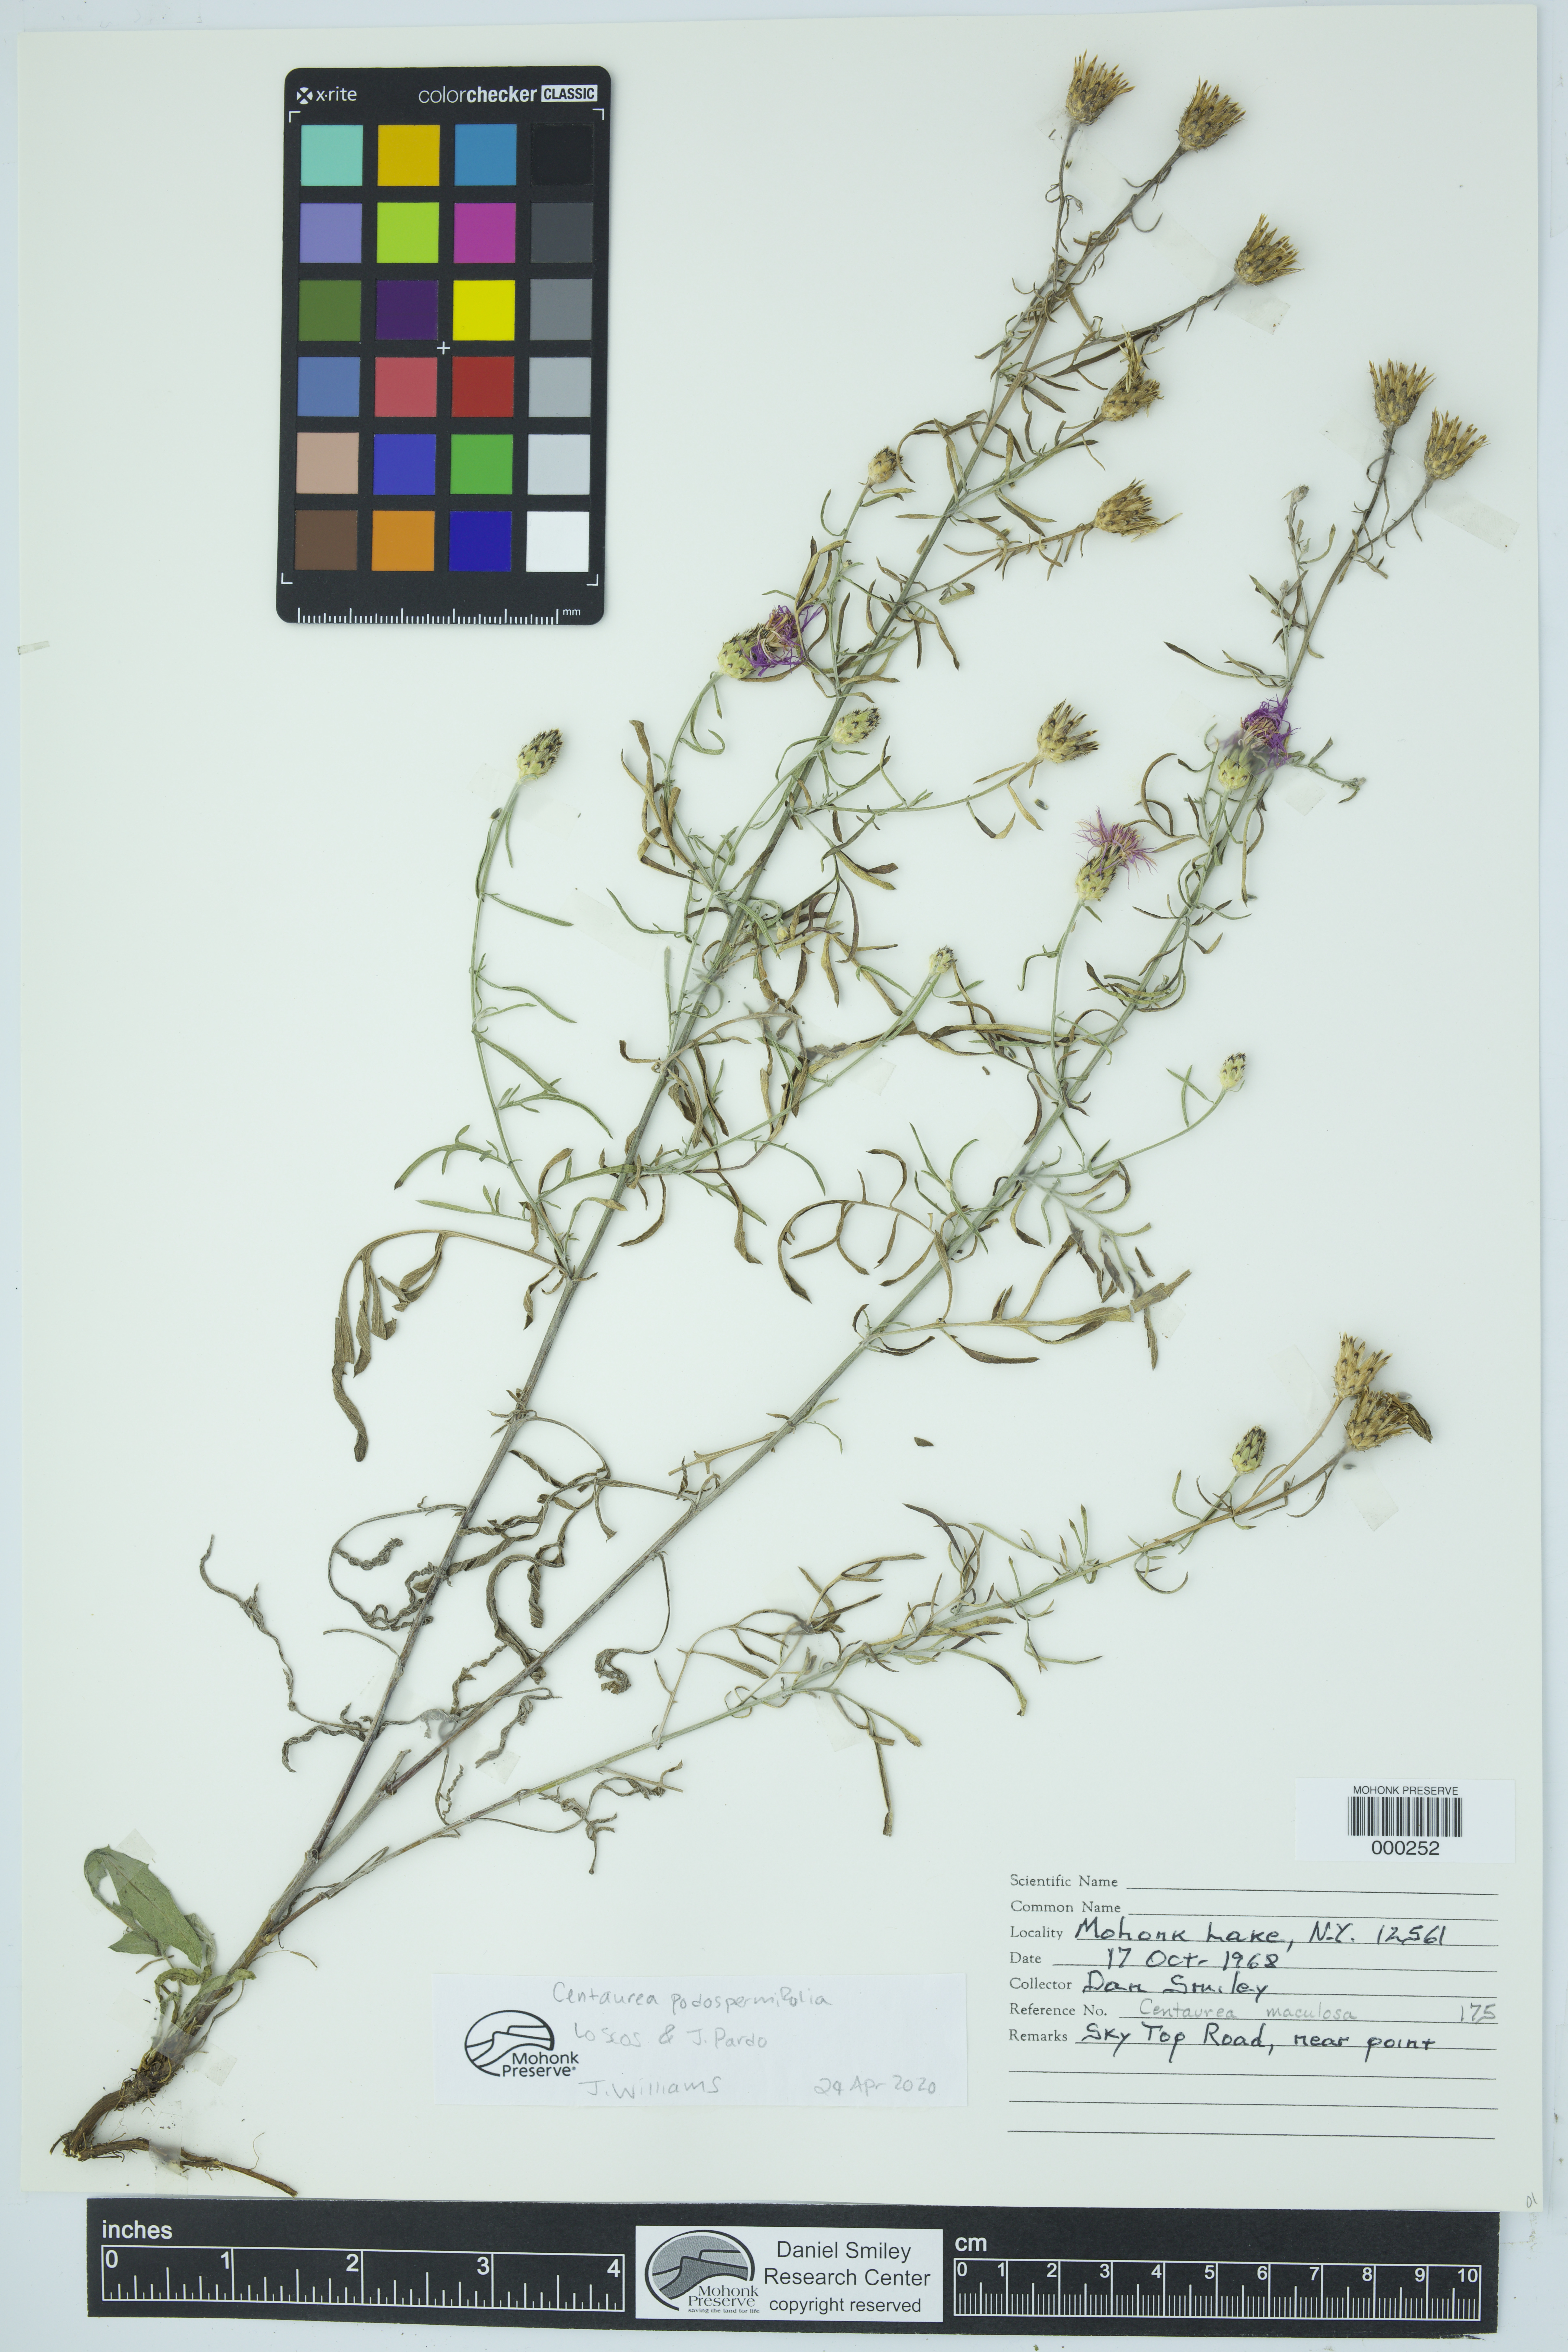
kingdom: Plantae
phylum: Tracheophyta
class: Magnoliopsida
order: Asterales
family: Asteraceae
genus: Centaurea
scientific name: Centaurea
